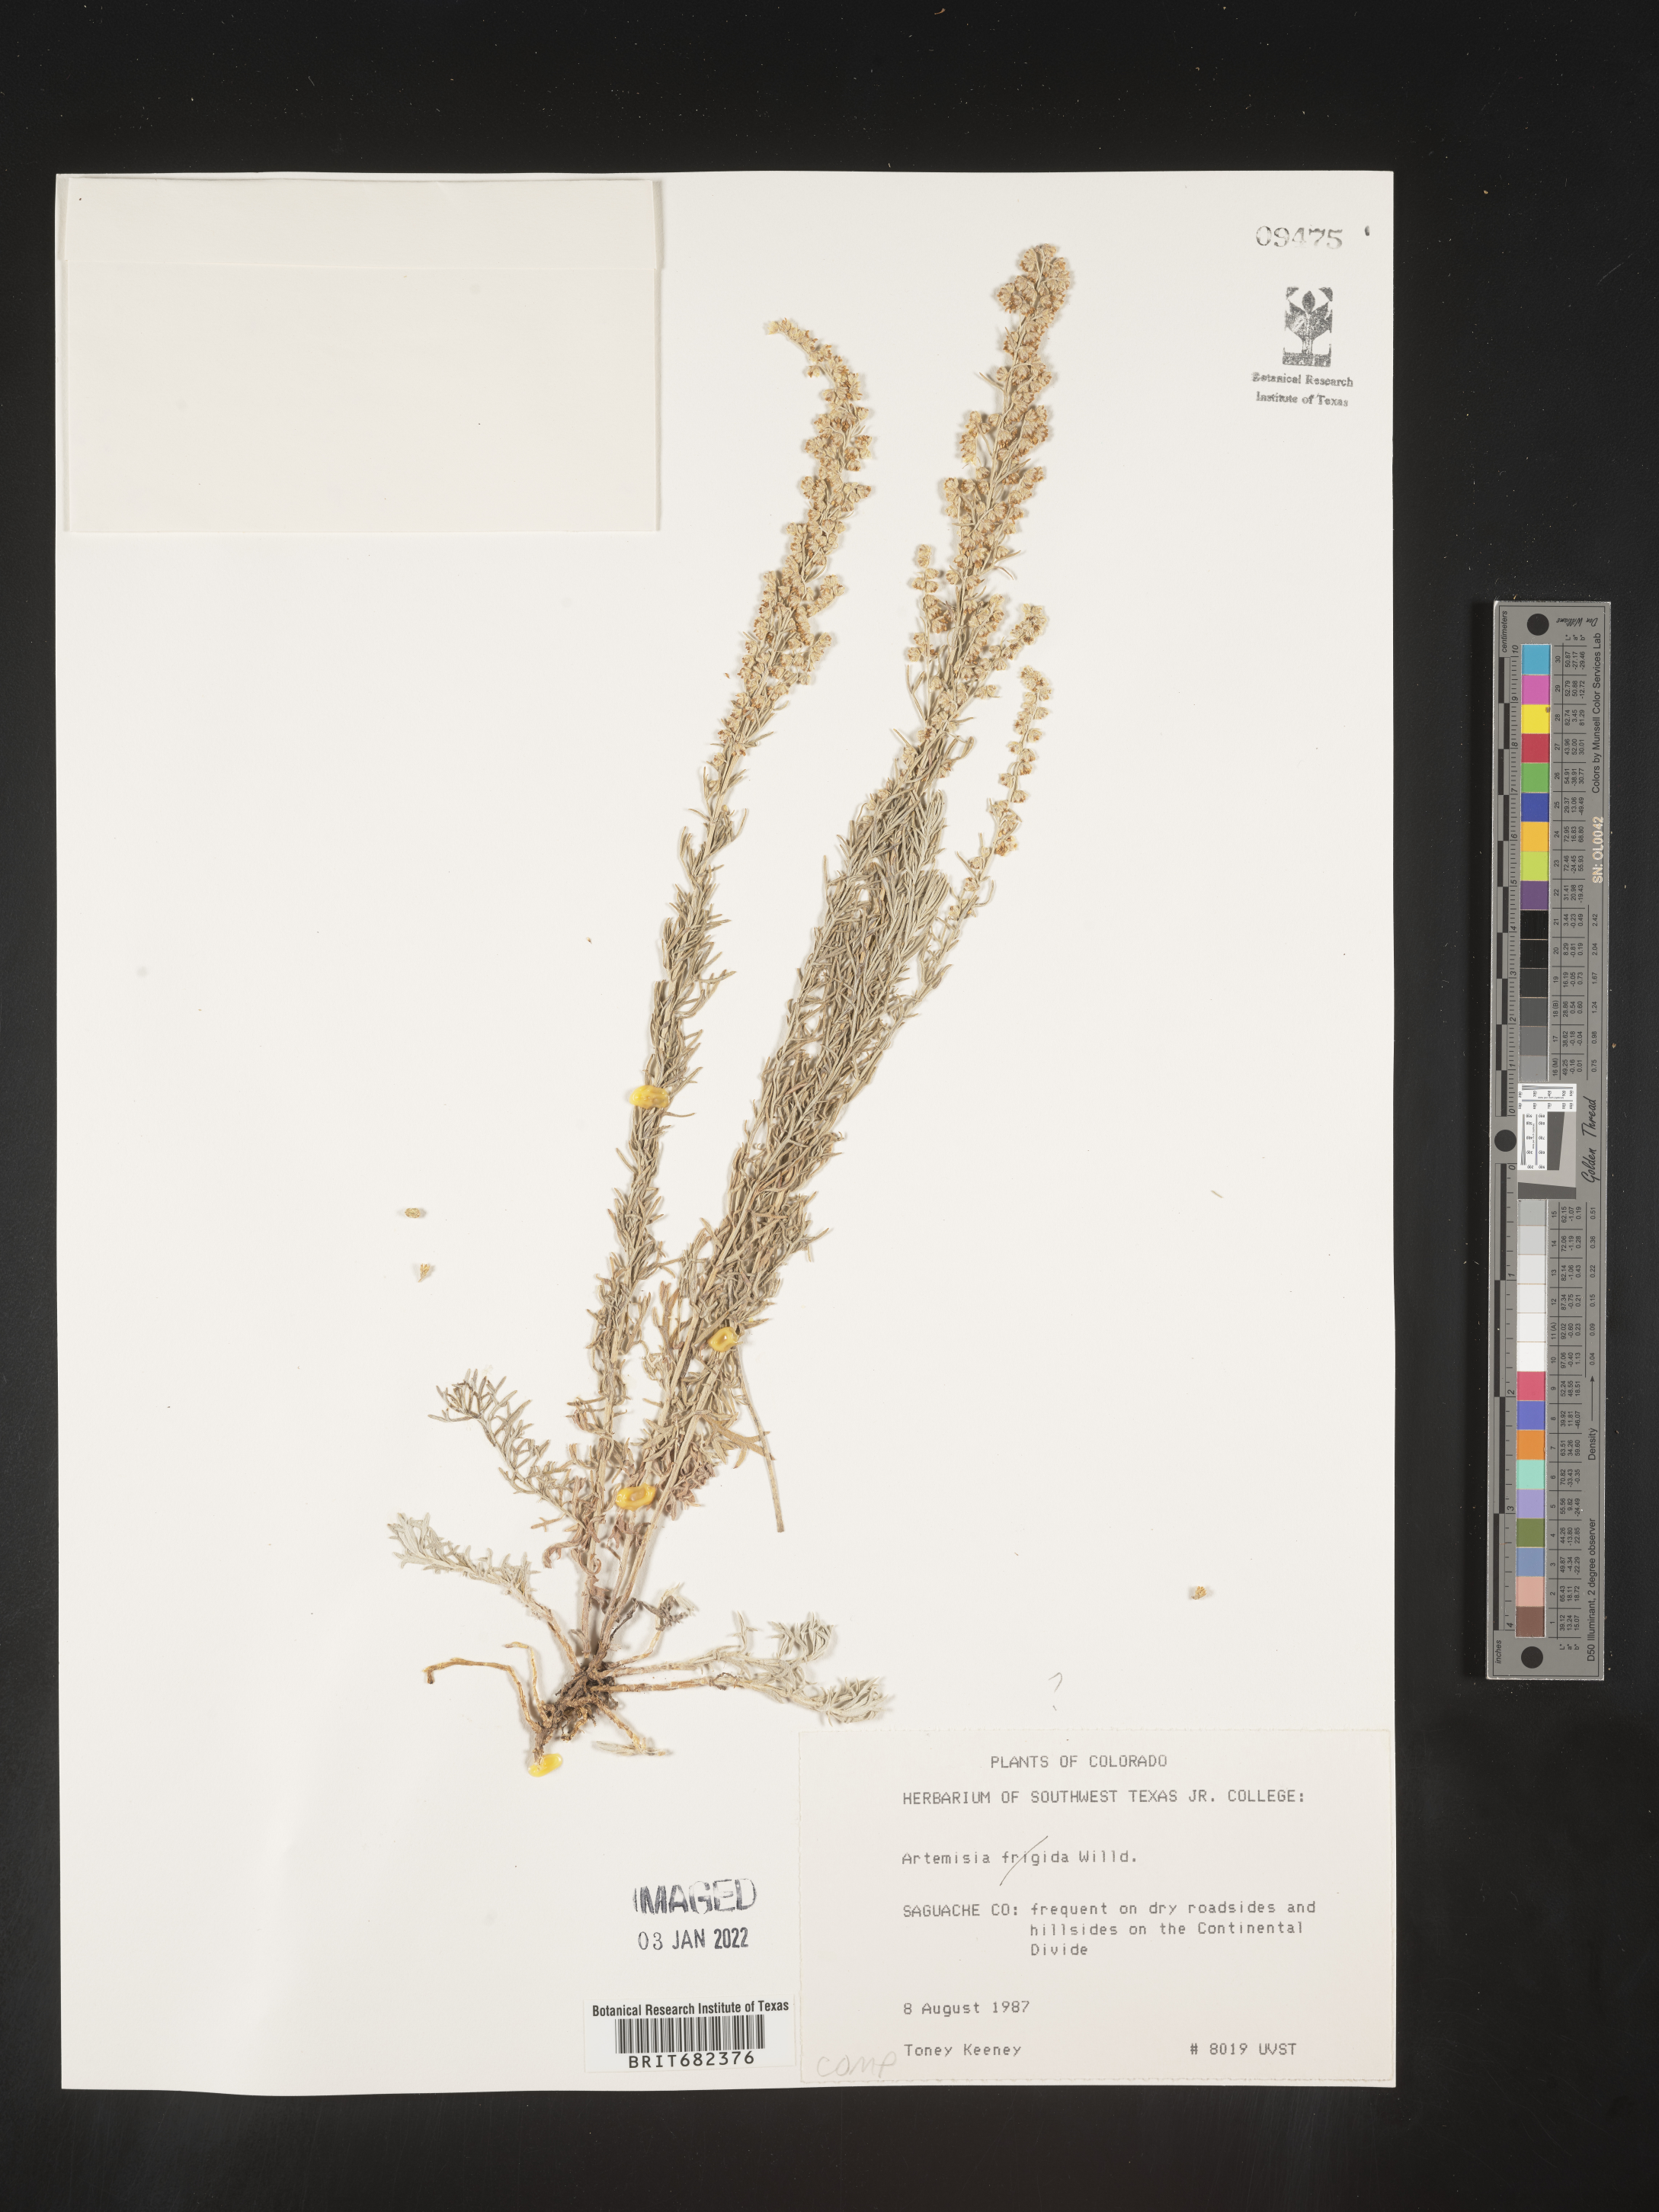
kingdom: Plantae
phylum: Tracheophyta
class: Magnoliopsida
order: Asterales
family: Asteraceae
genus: Artemisia
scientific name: Artemisia
